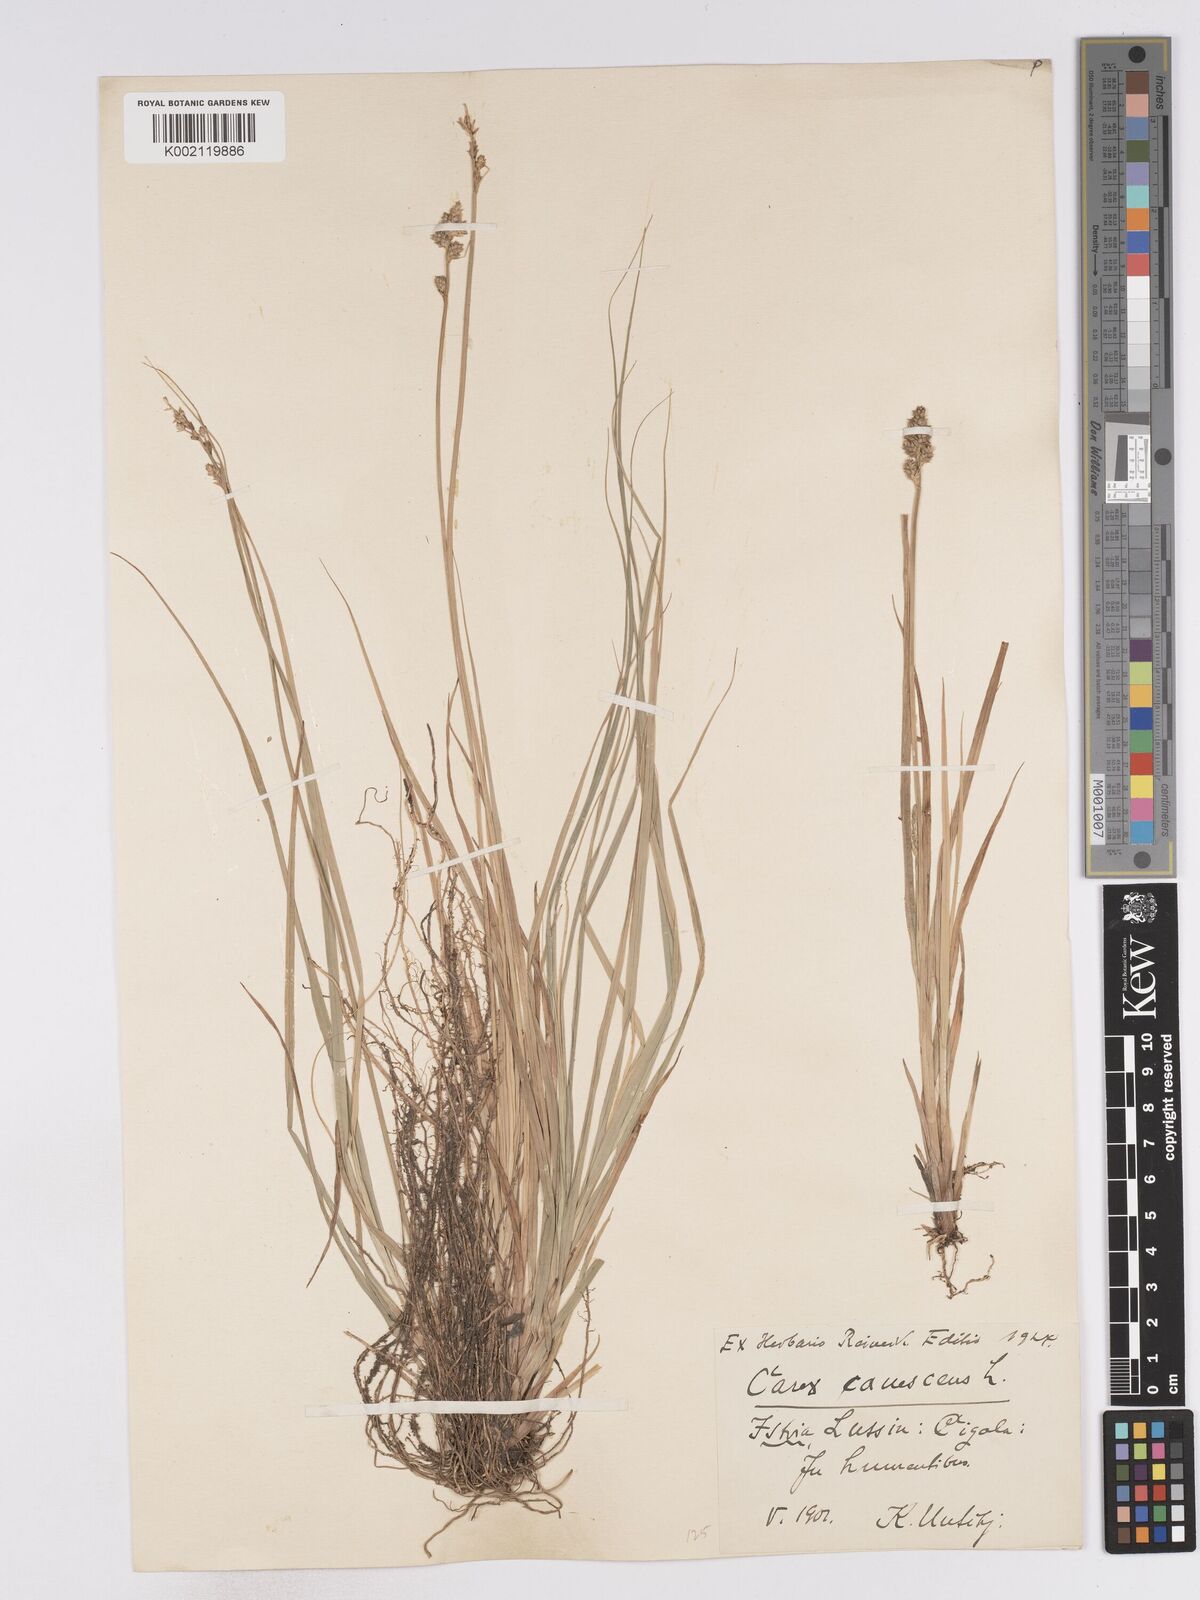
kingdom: Plantae
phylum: Tracheophyta
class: Liliopsida
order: Poales
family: Cyperaceae
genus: Carex
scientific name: Carex curta
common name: White sedge
